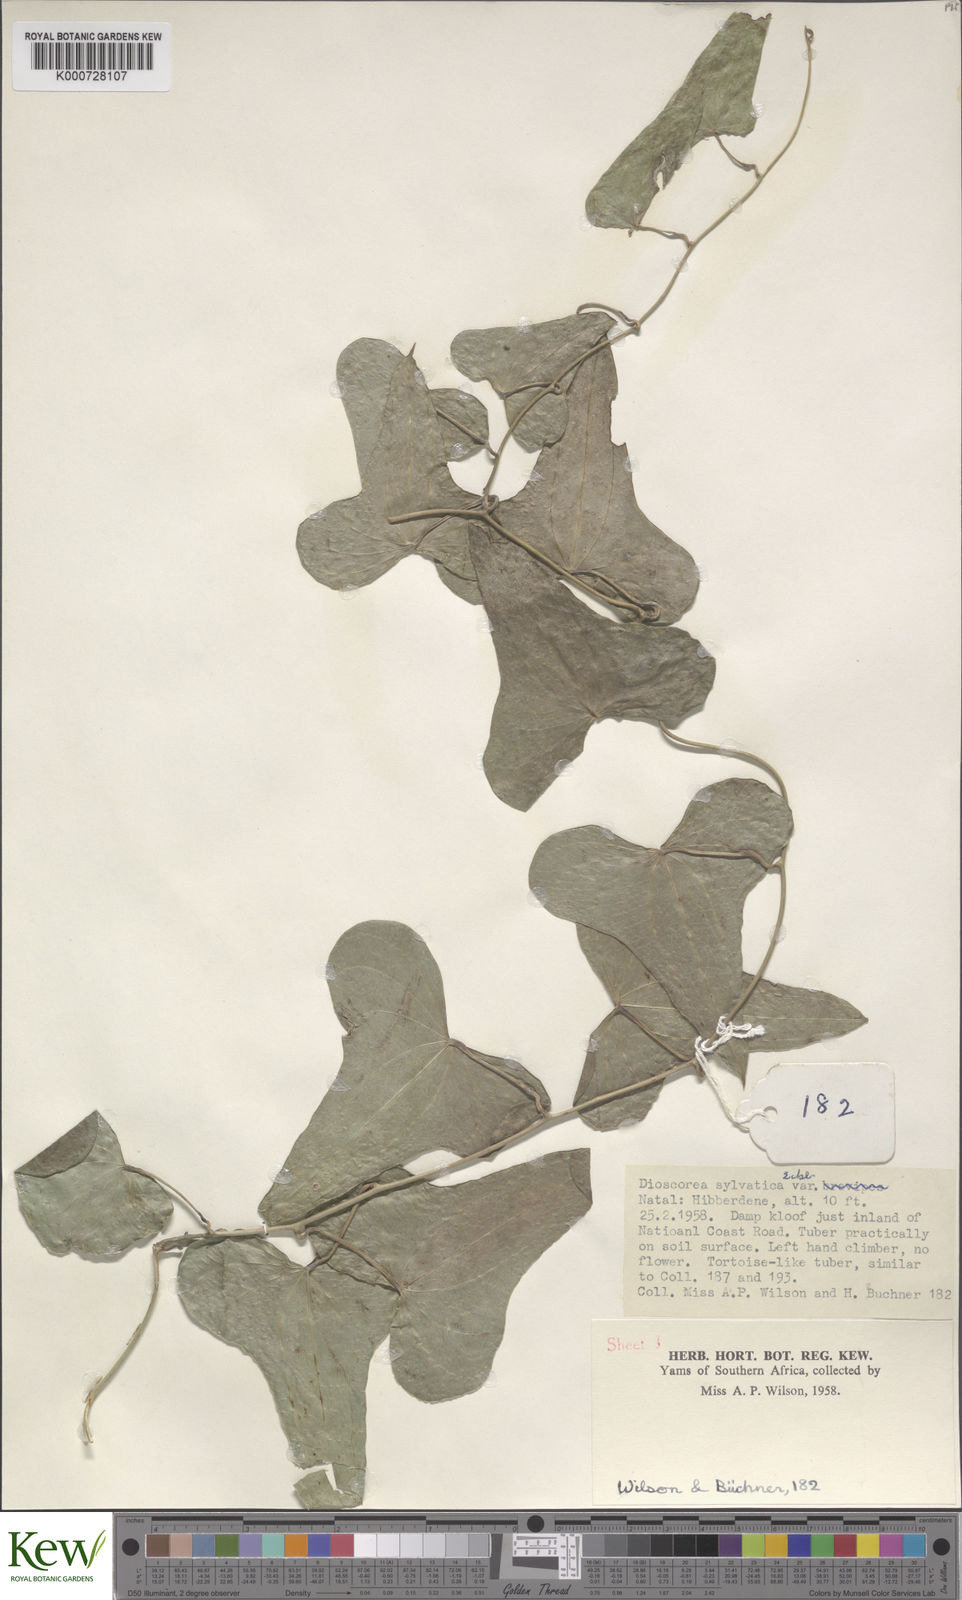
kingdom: Plantae
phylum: Tracheophyta
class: Liliopsida
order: Dioscoreales
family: Dioscoreaceae
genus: Dioscorea
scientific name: Dioscorea sylvatica
